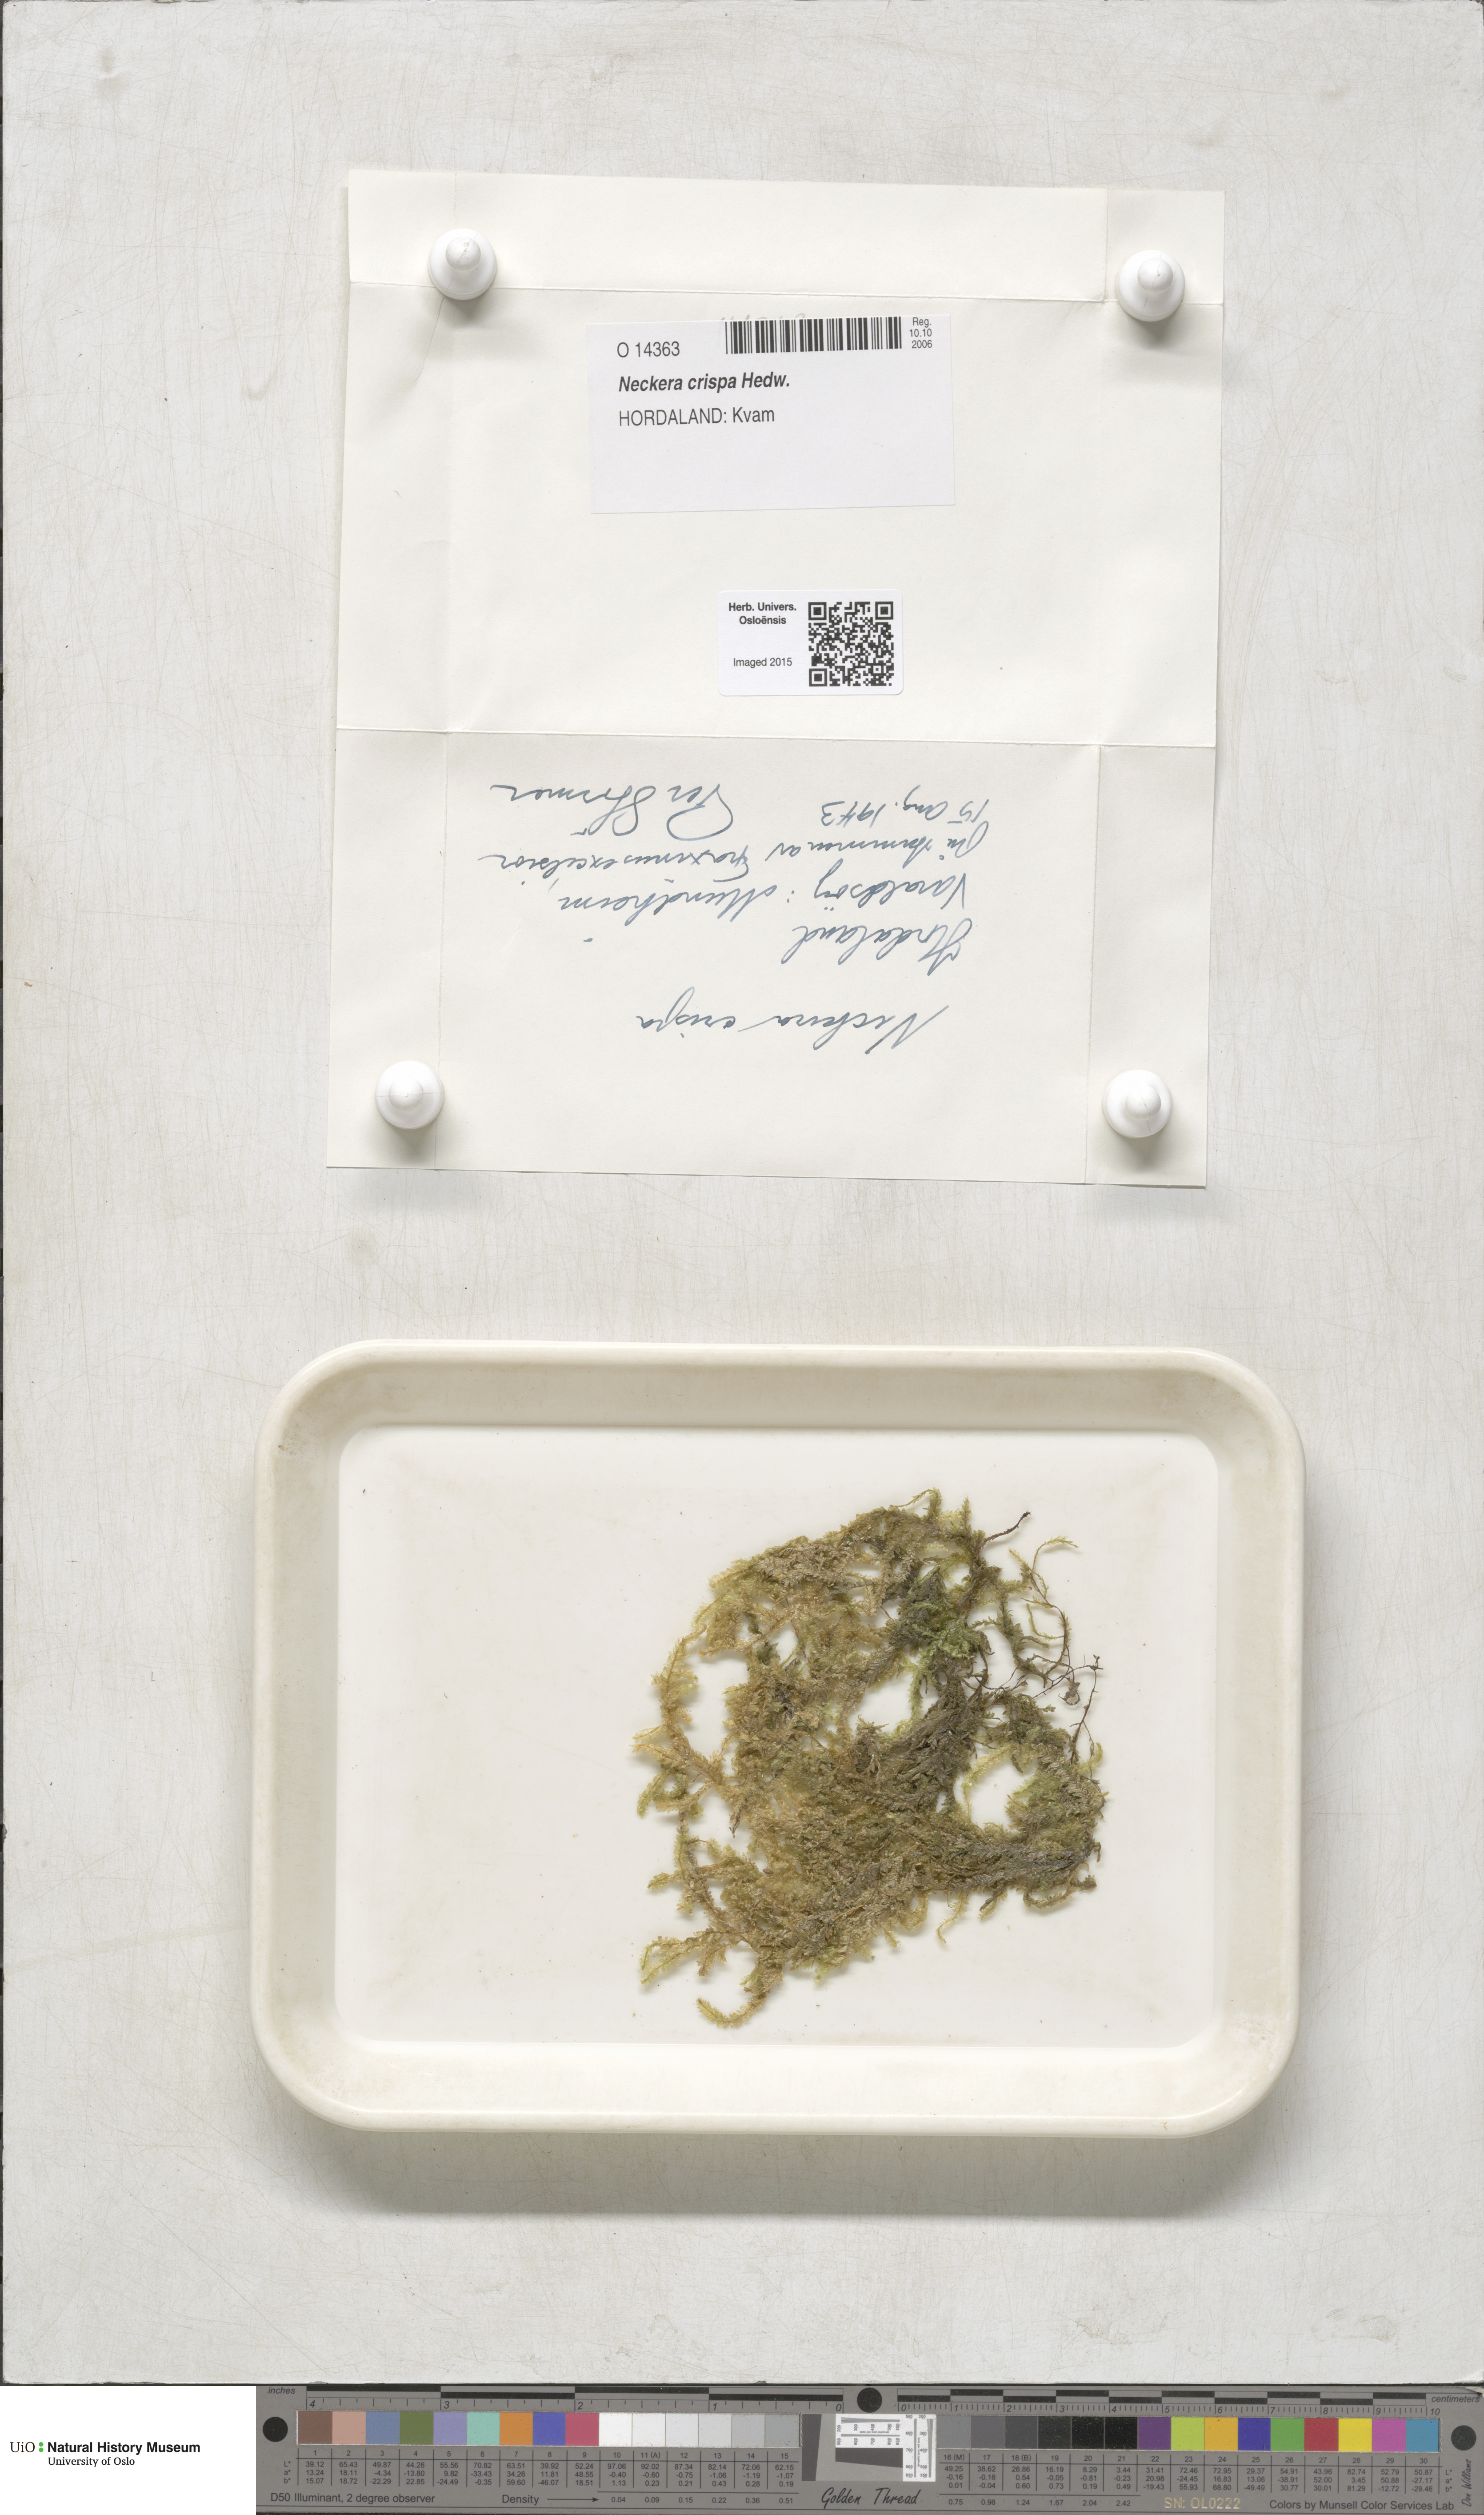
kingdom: Plantae
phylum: Bryophyta
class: Bryopsida
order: Hypnales
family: Neckeraceae
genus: Exsertotheca
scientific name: Exsertotheca crispa
